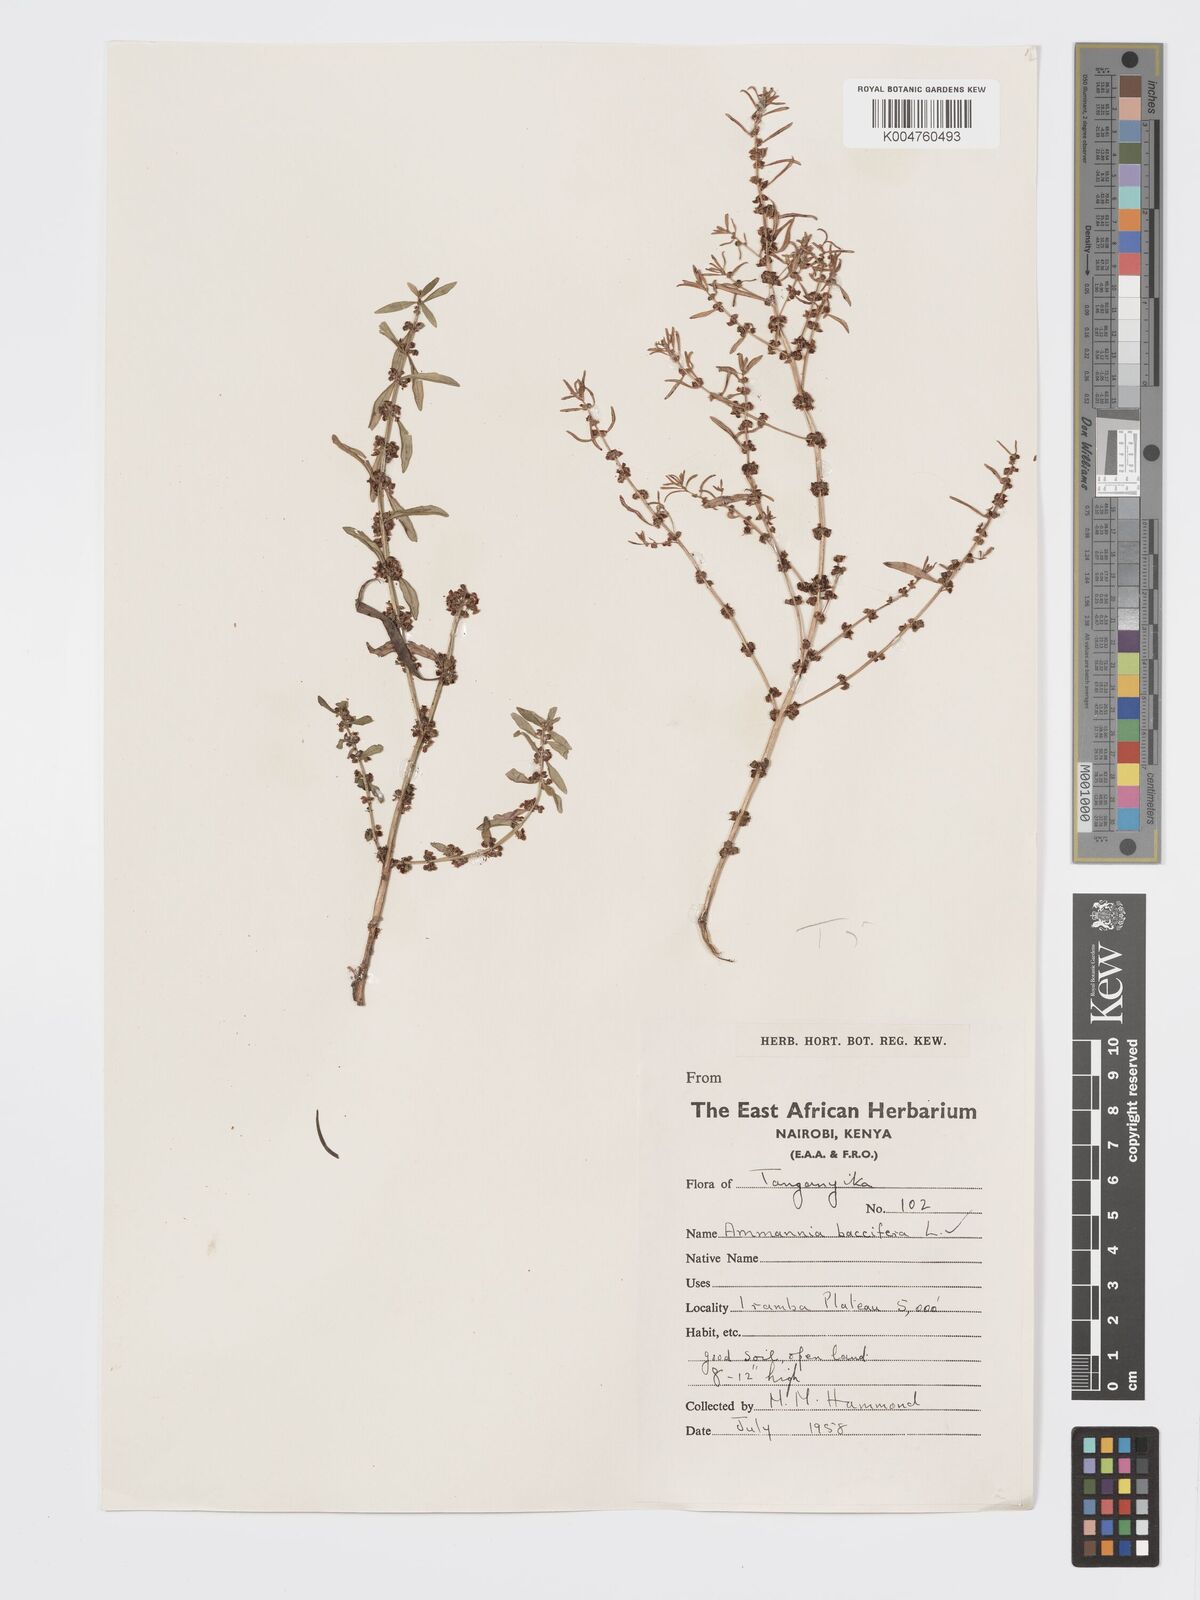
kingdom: Plantae
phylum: Tracheophyta
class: Magnoliopsida
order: Myrtales
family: Lythraceae
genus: Ammannia
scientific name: Ammannia
